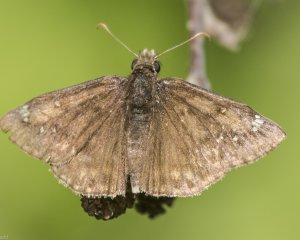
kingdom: Animalia
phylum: Arthropoda
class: Insecta
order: Lepidoptera
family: Hesperiidae
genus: Autochton
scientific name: Autochton
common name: Northern Cloudywing
